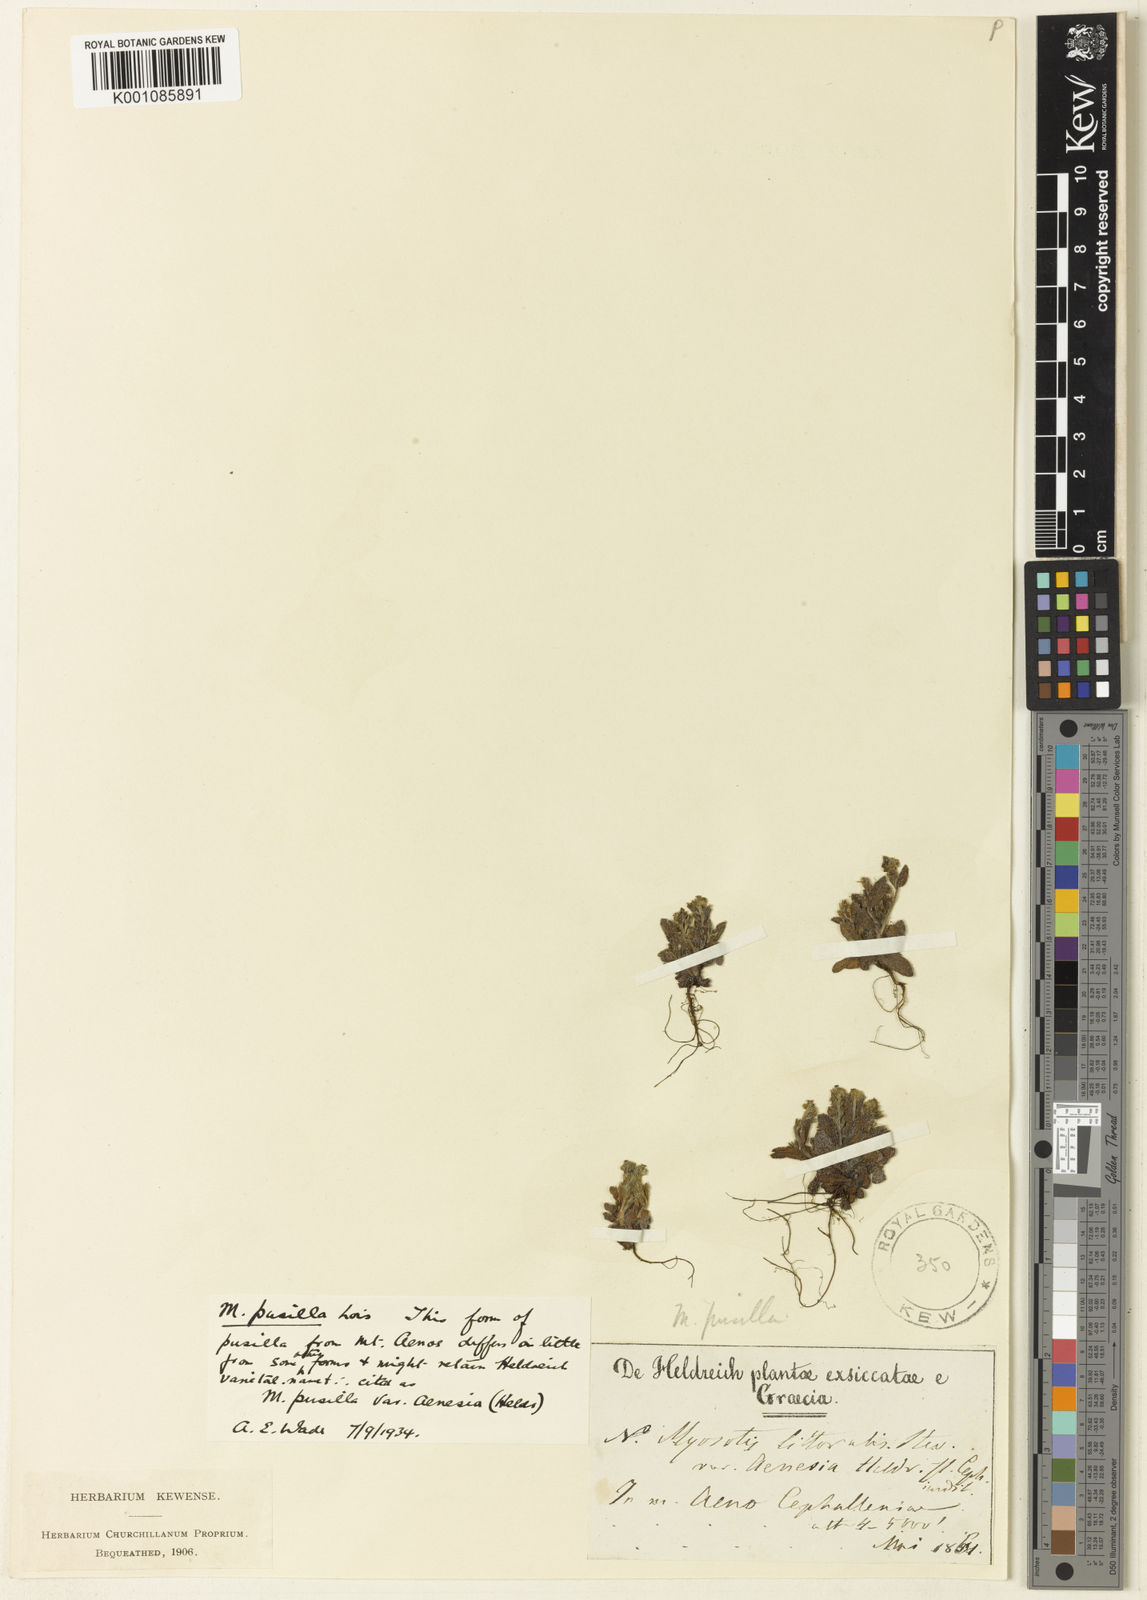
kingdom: Plantae
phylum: Tracheophyta
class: Magnoliopsida
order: Boraginales
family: Boraginaceae
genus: Myosotis
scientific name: Myosotis incrassata
